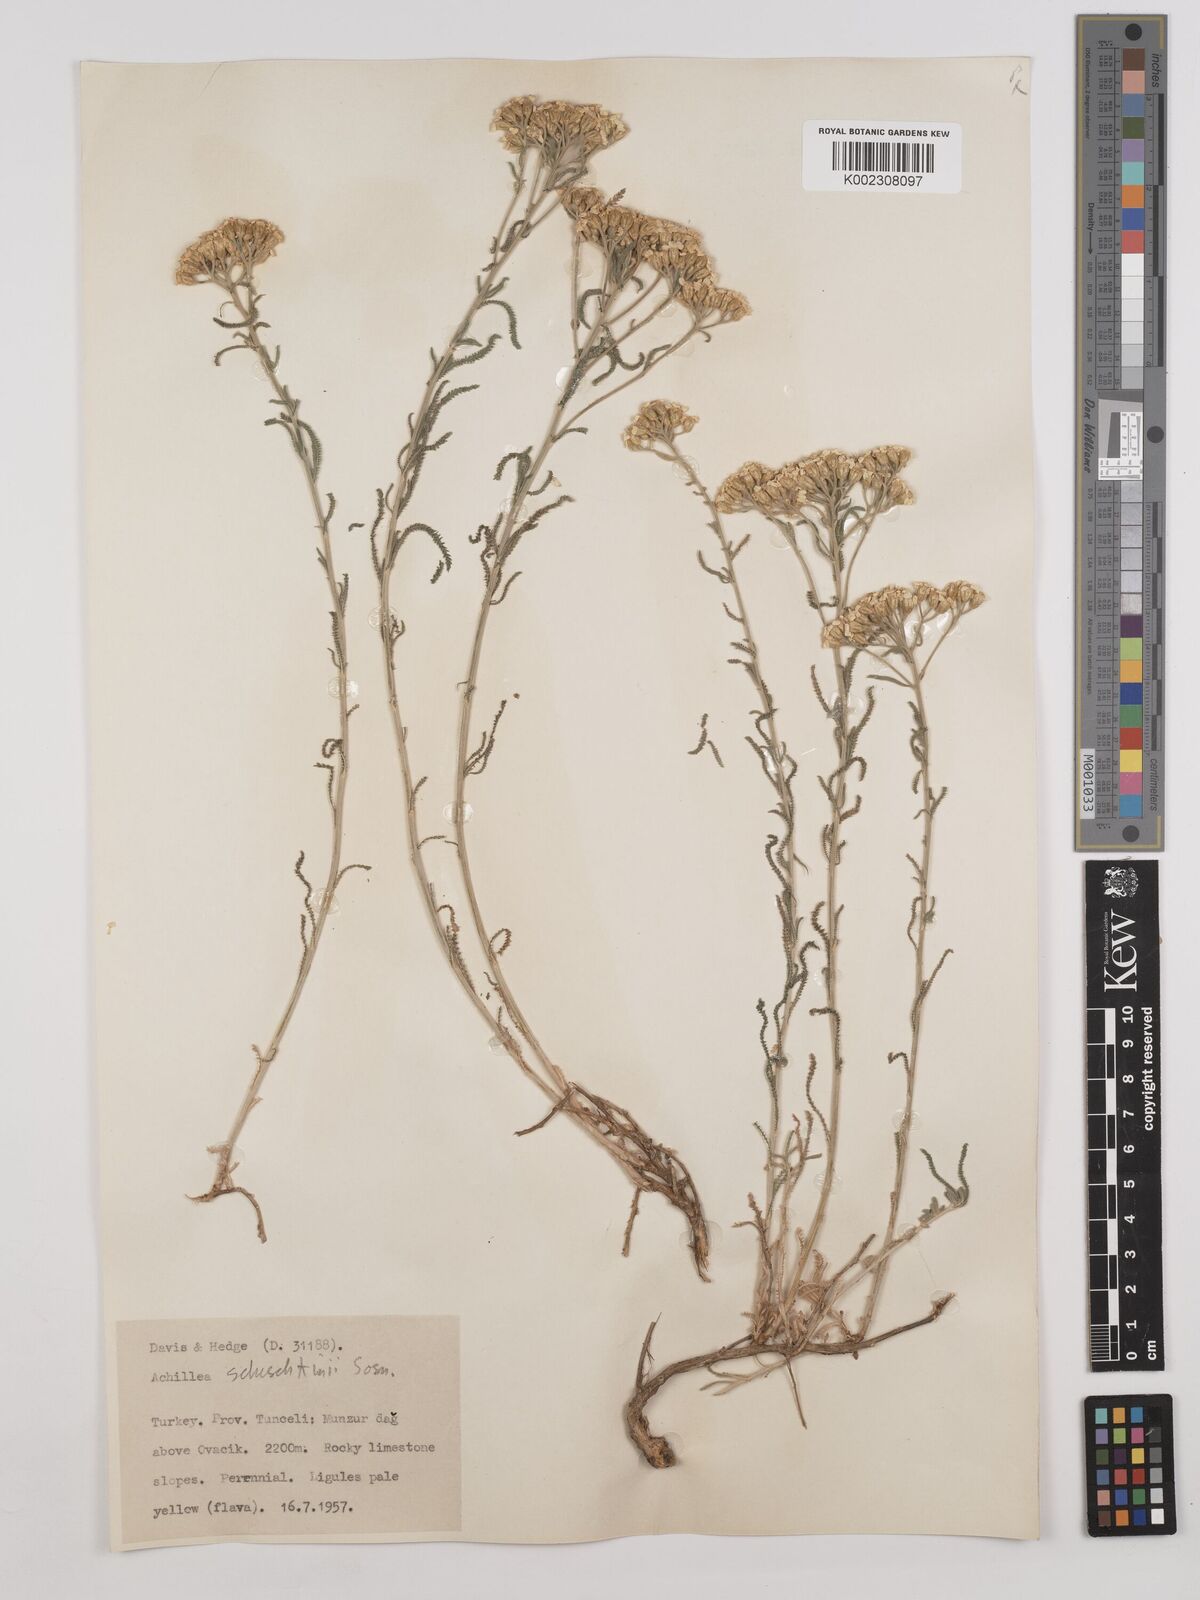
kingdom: Plantae
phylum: Tracheophyta
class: Magnoliopsida
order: Asterales
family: Asteraceae
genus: Achillea
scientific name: Achillea schischkinii
